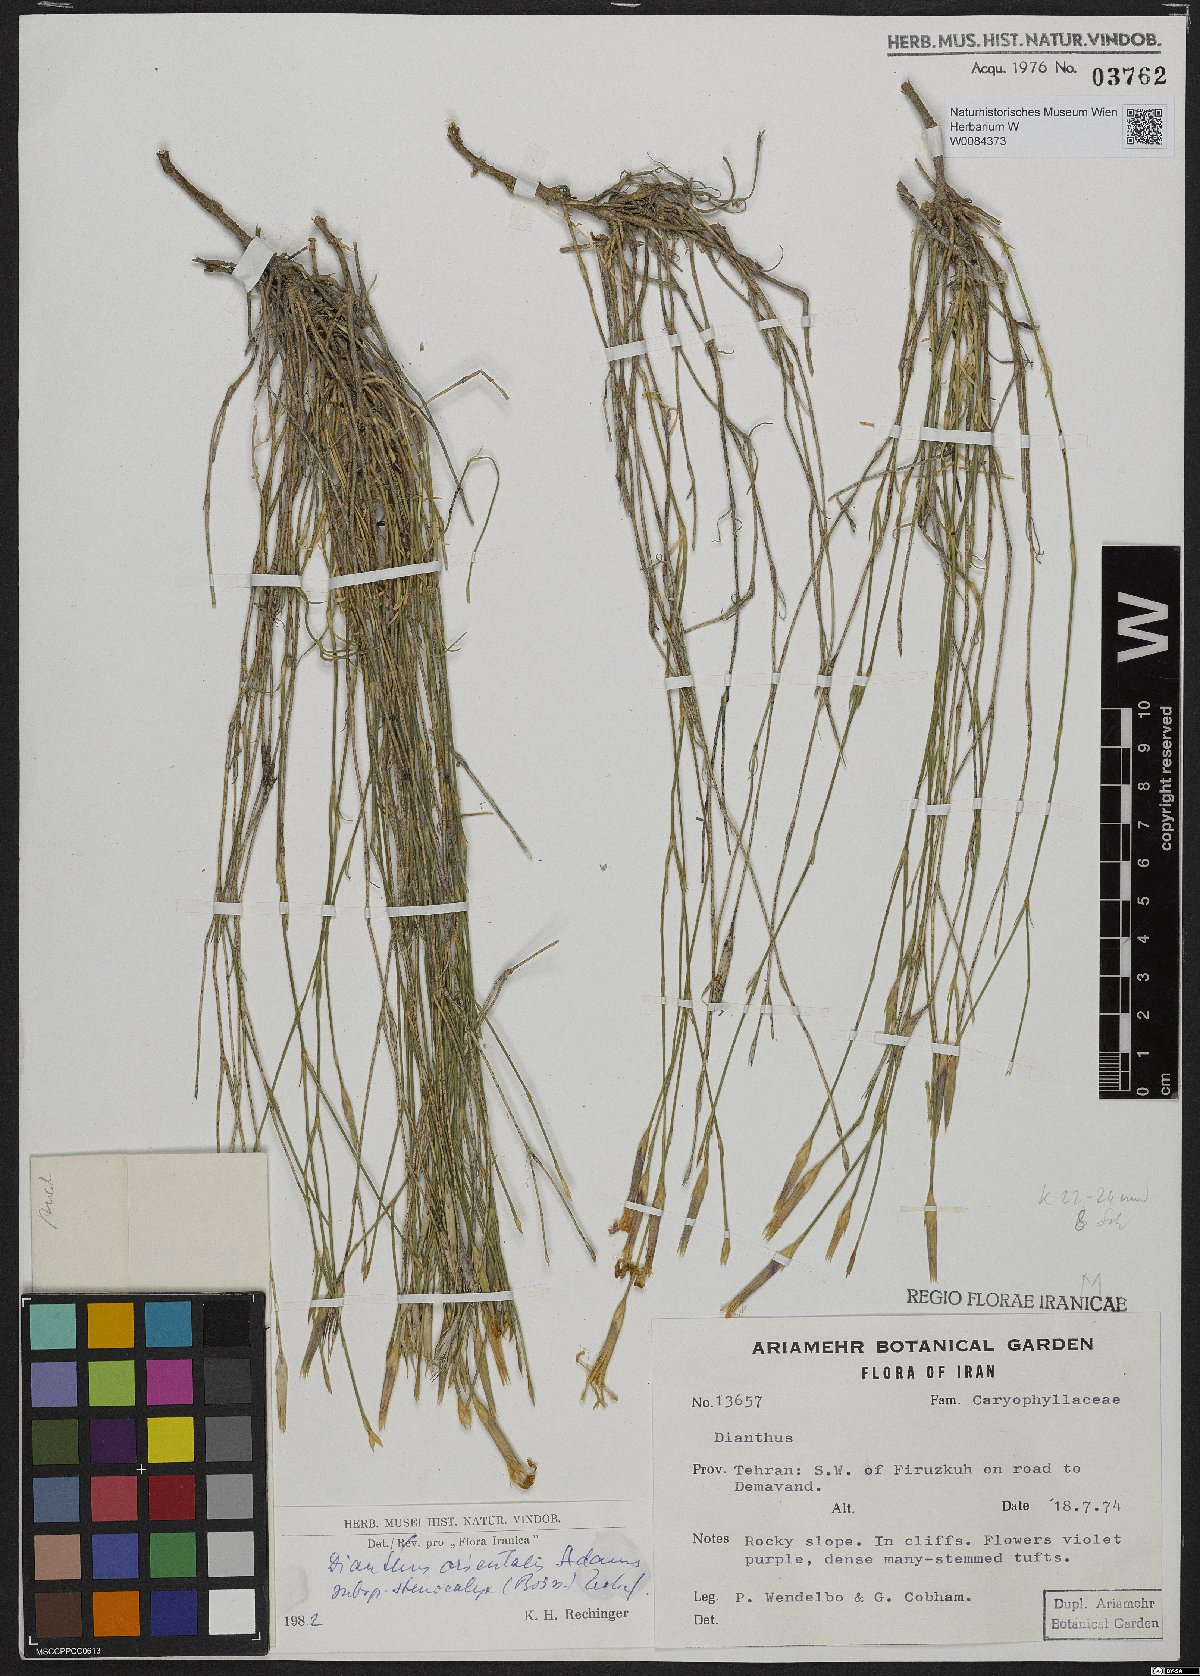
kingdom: Plantae
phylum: Tracheophyta
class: Magnoliopsida
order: Caryophyllales
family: Caryophyllaceae
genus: Dianthus
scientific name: Dianthus orientalis
